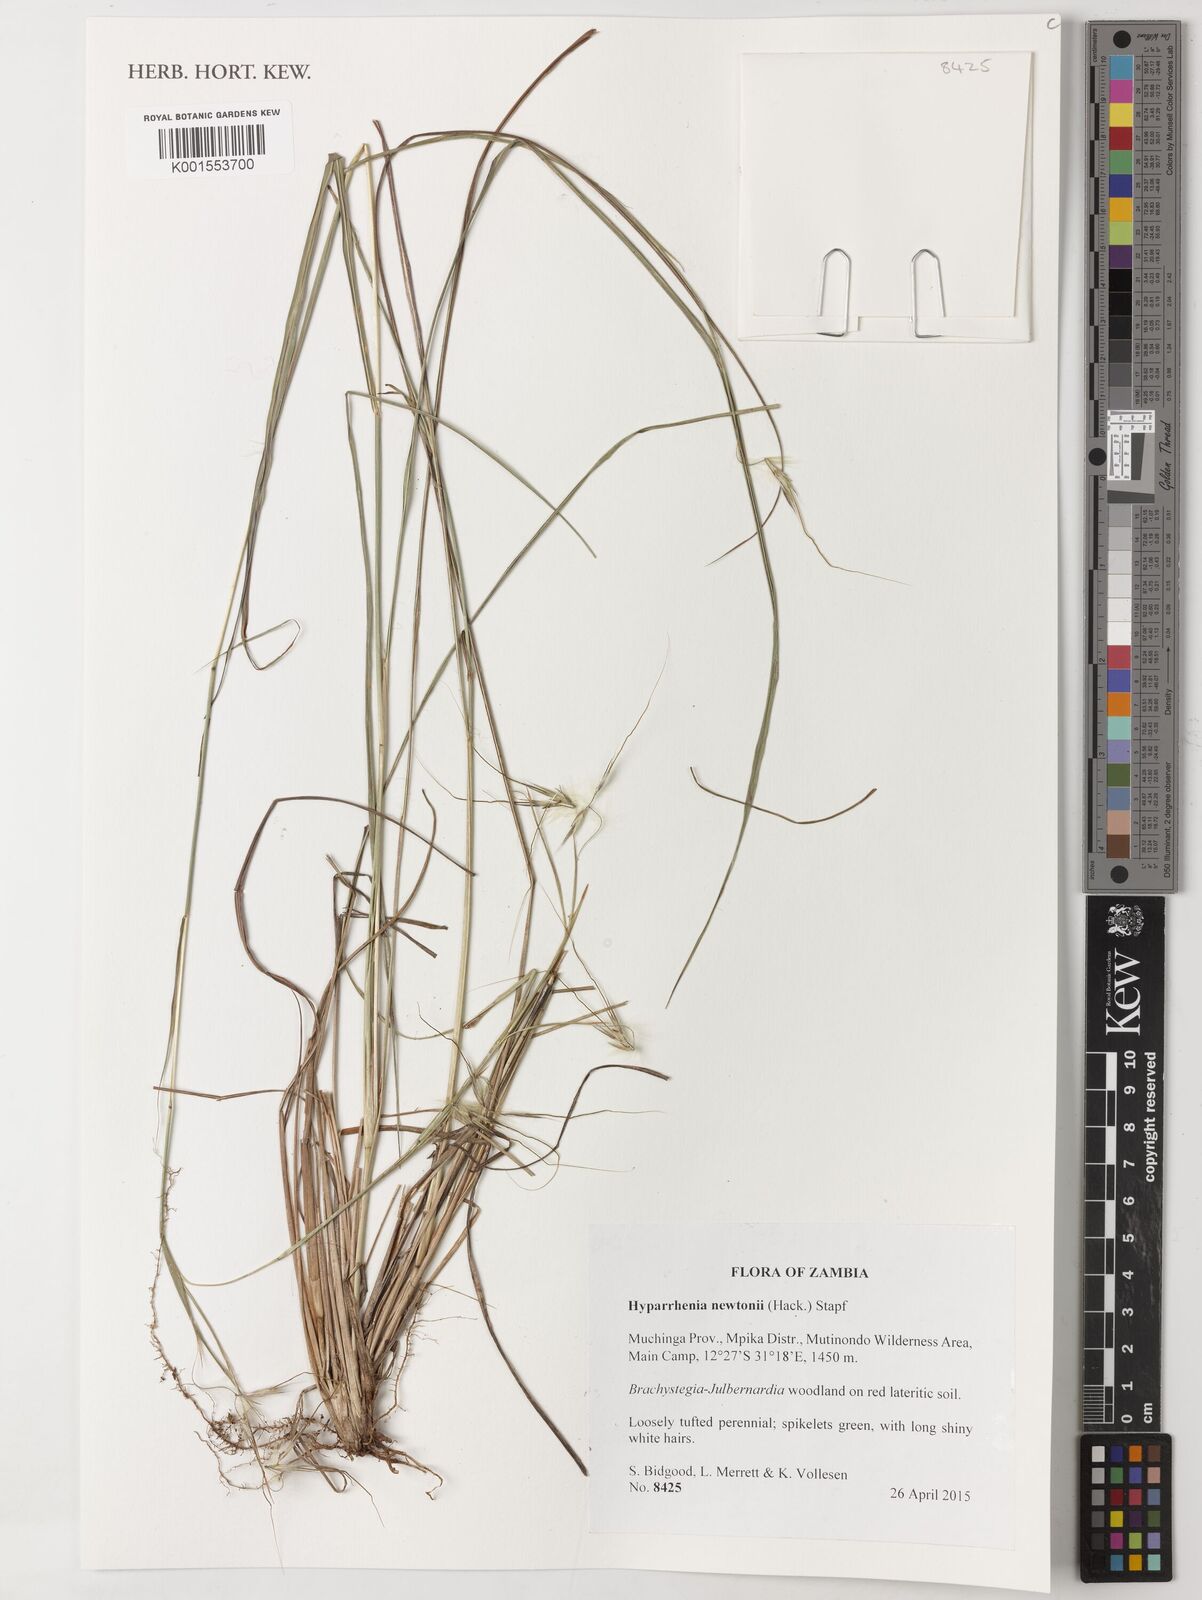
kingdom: Plantae
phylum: Tracheophyta
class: Liliopsida
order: Poales
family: Poaceae
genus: Hyparrhenia
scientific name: Hyparrhenia newtonii
